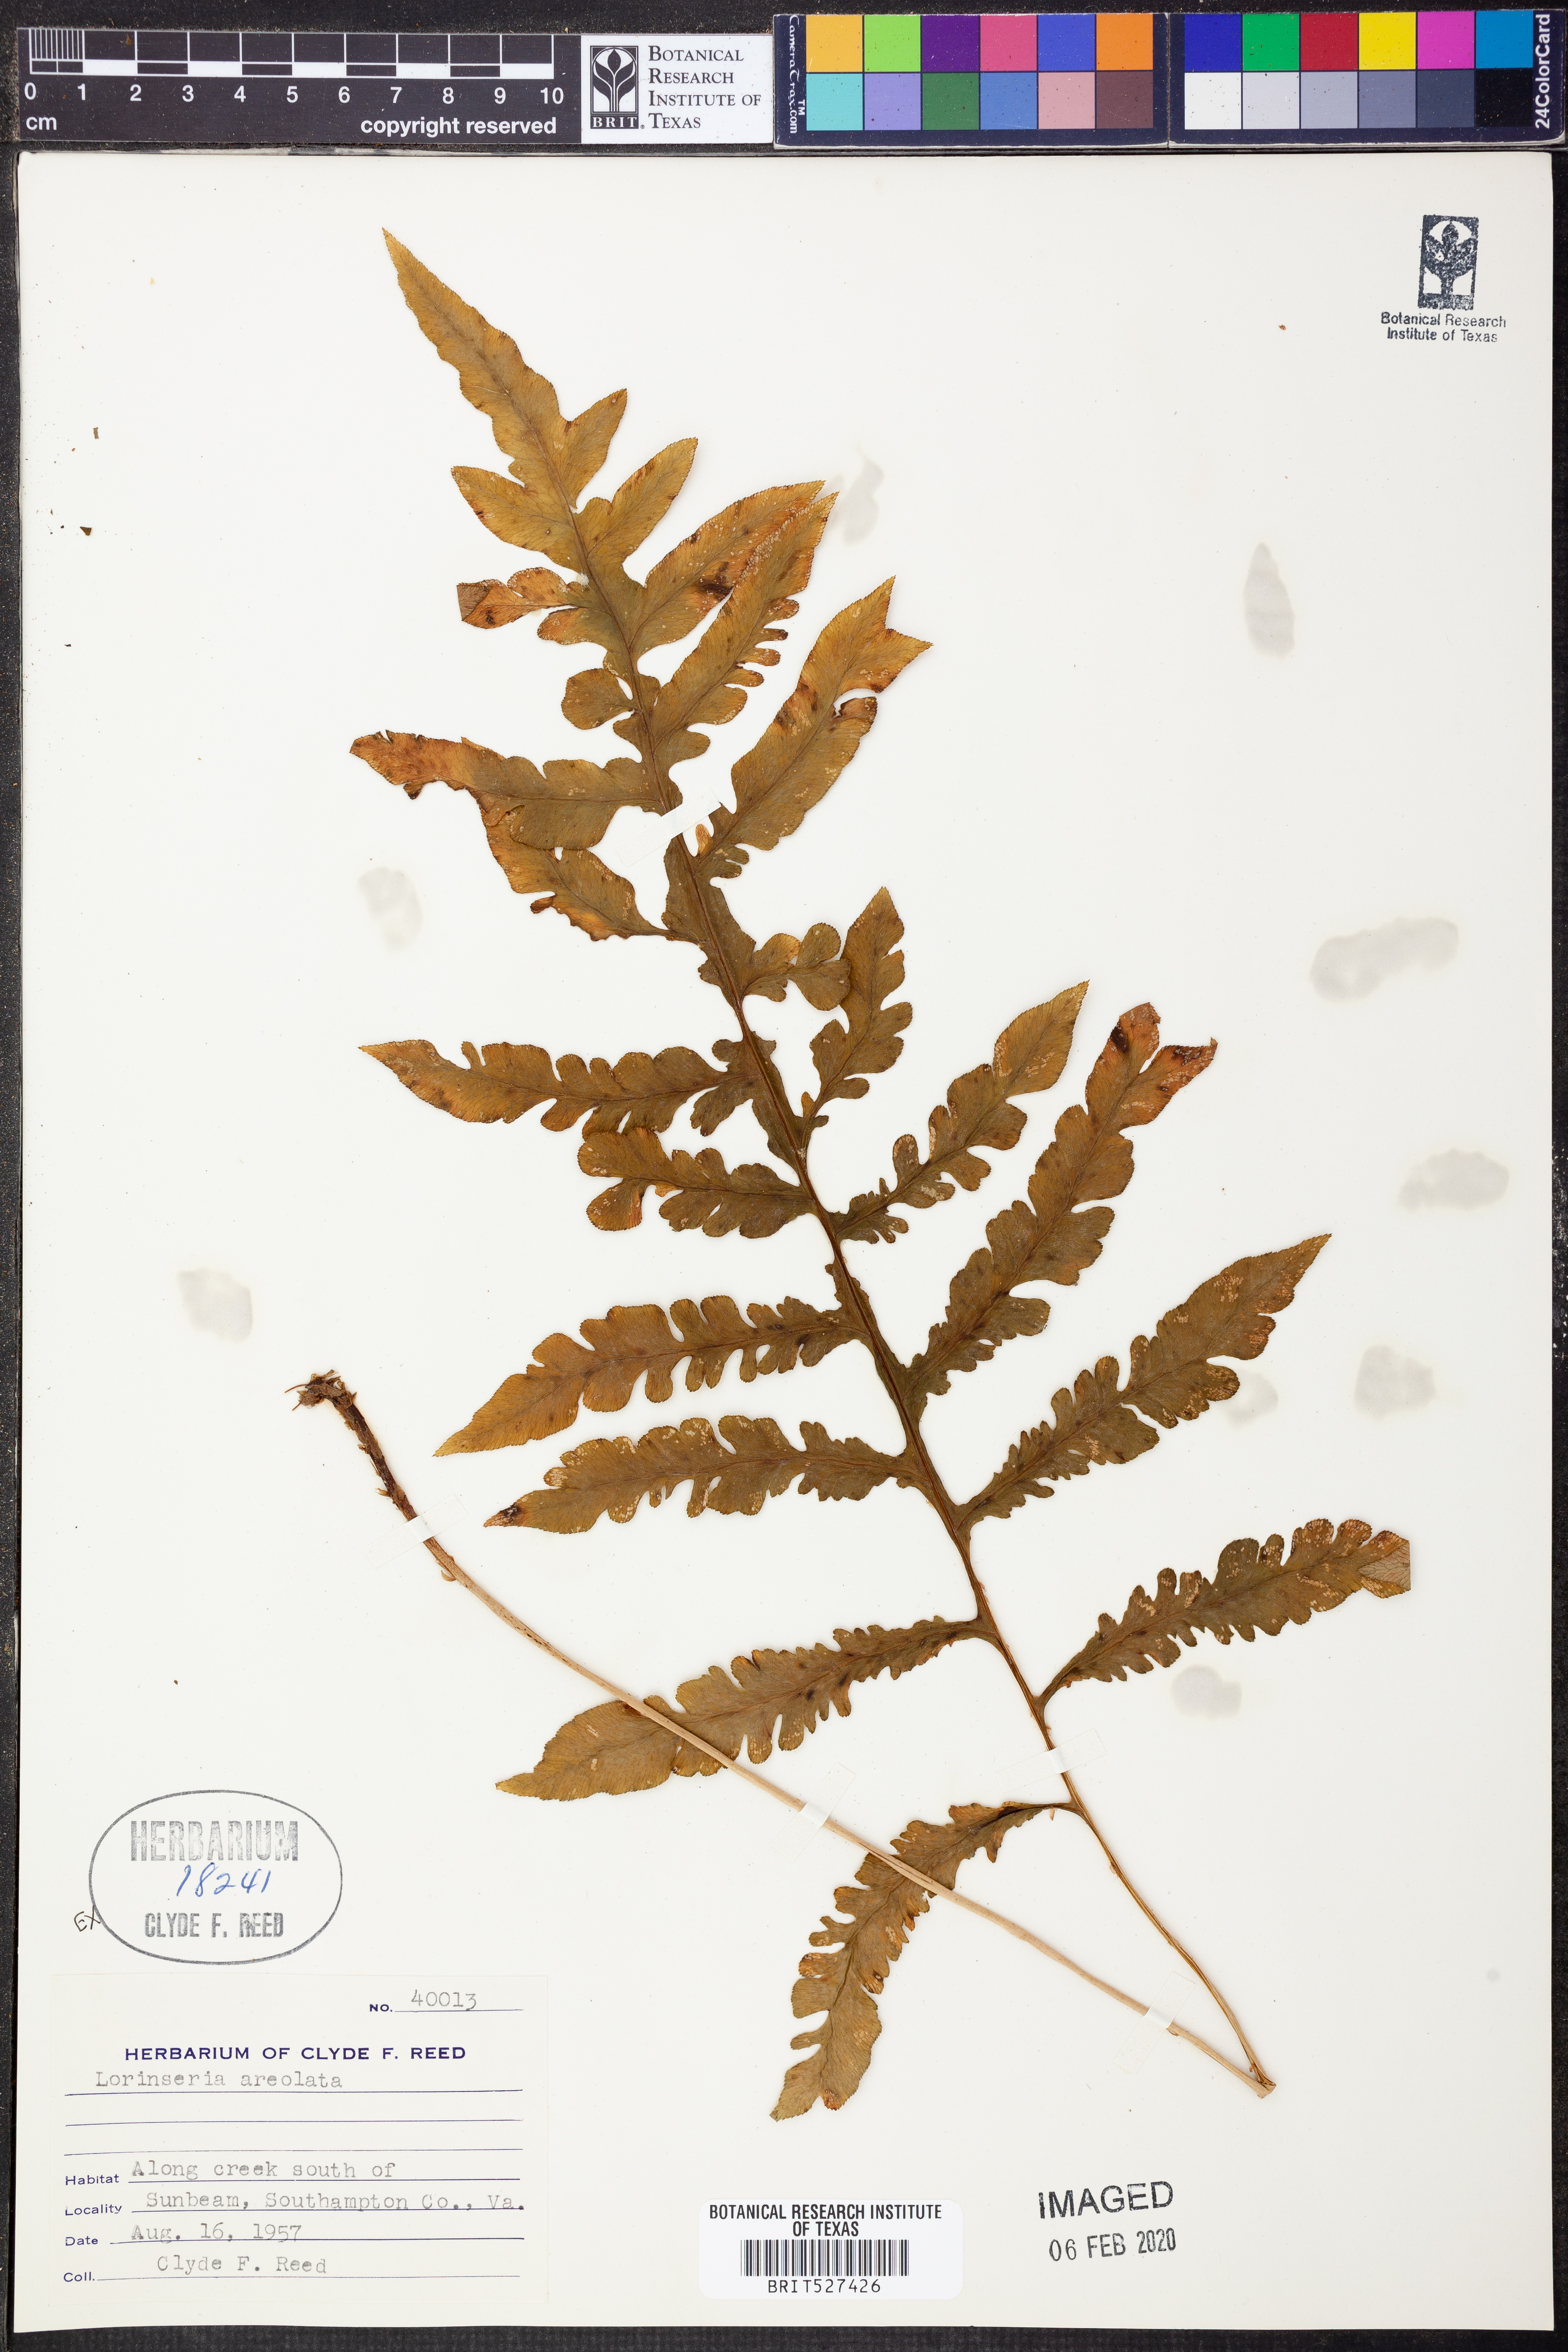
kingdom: Plantae
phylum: Tracheophyta
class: Polypodiopsida
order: Polypodiales
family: Blechnaceae
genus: Lorinseria
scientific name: Lorinseria areolata
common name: Dwarf chain fern
